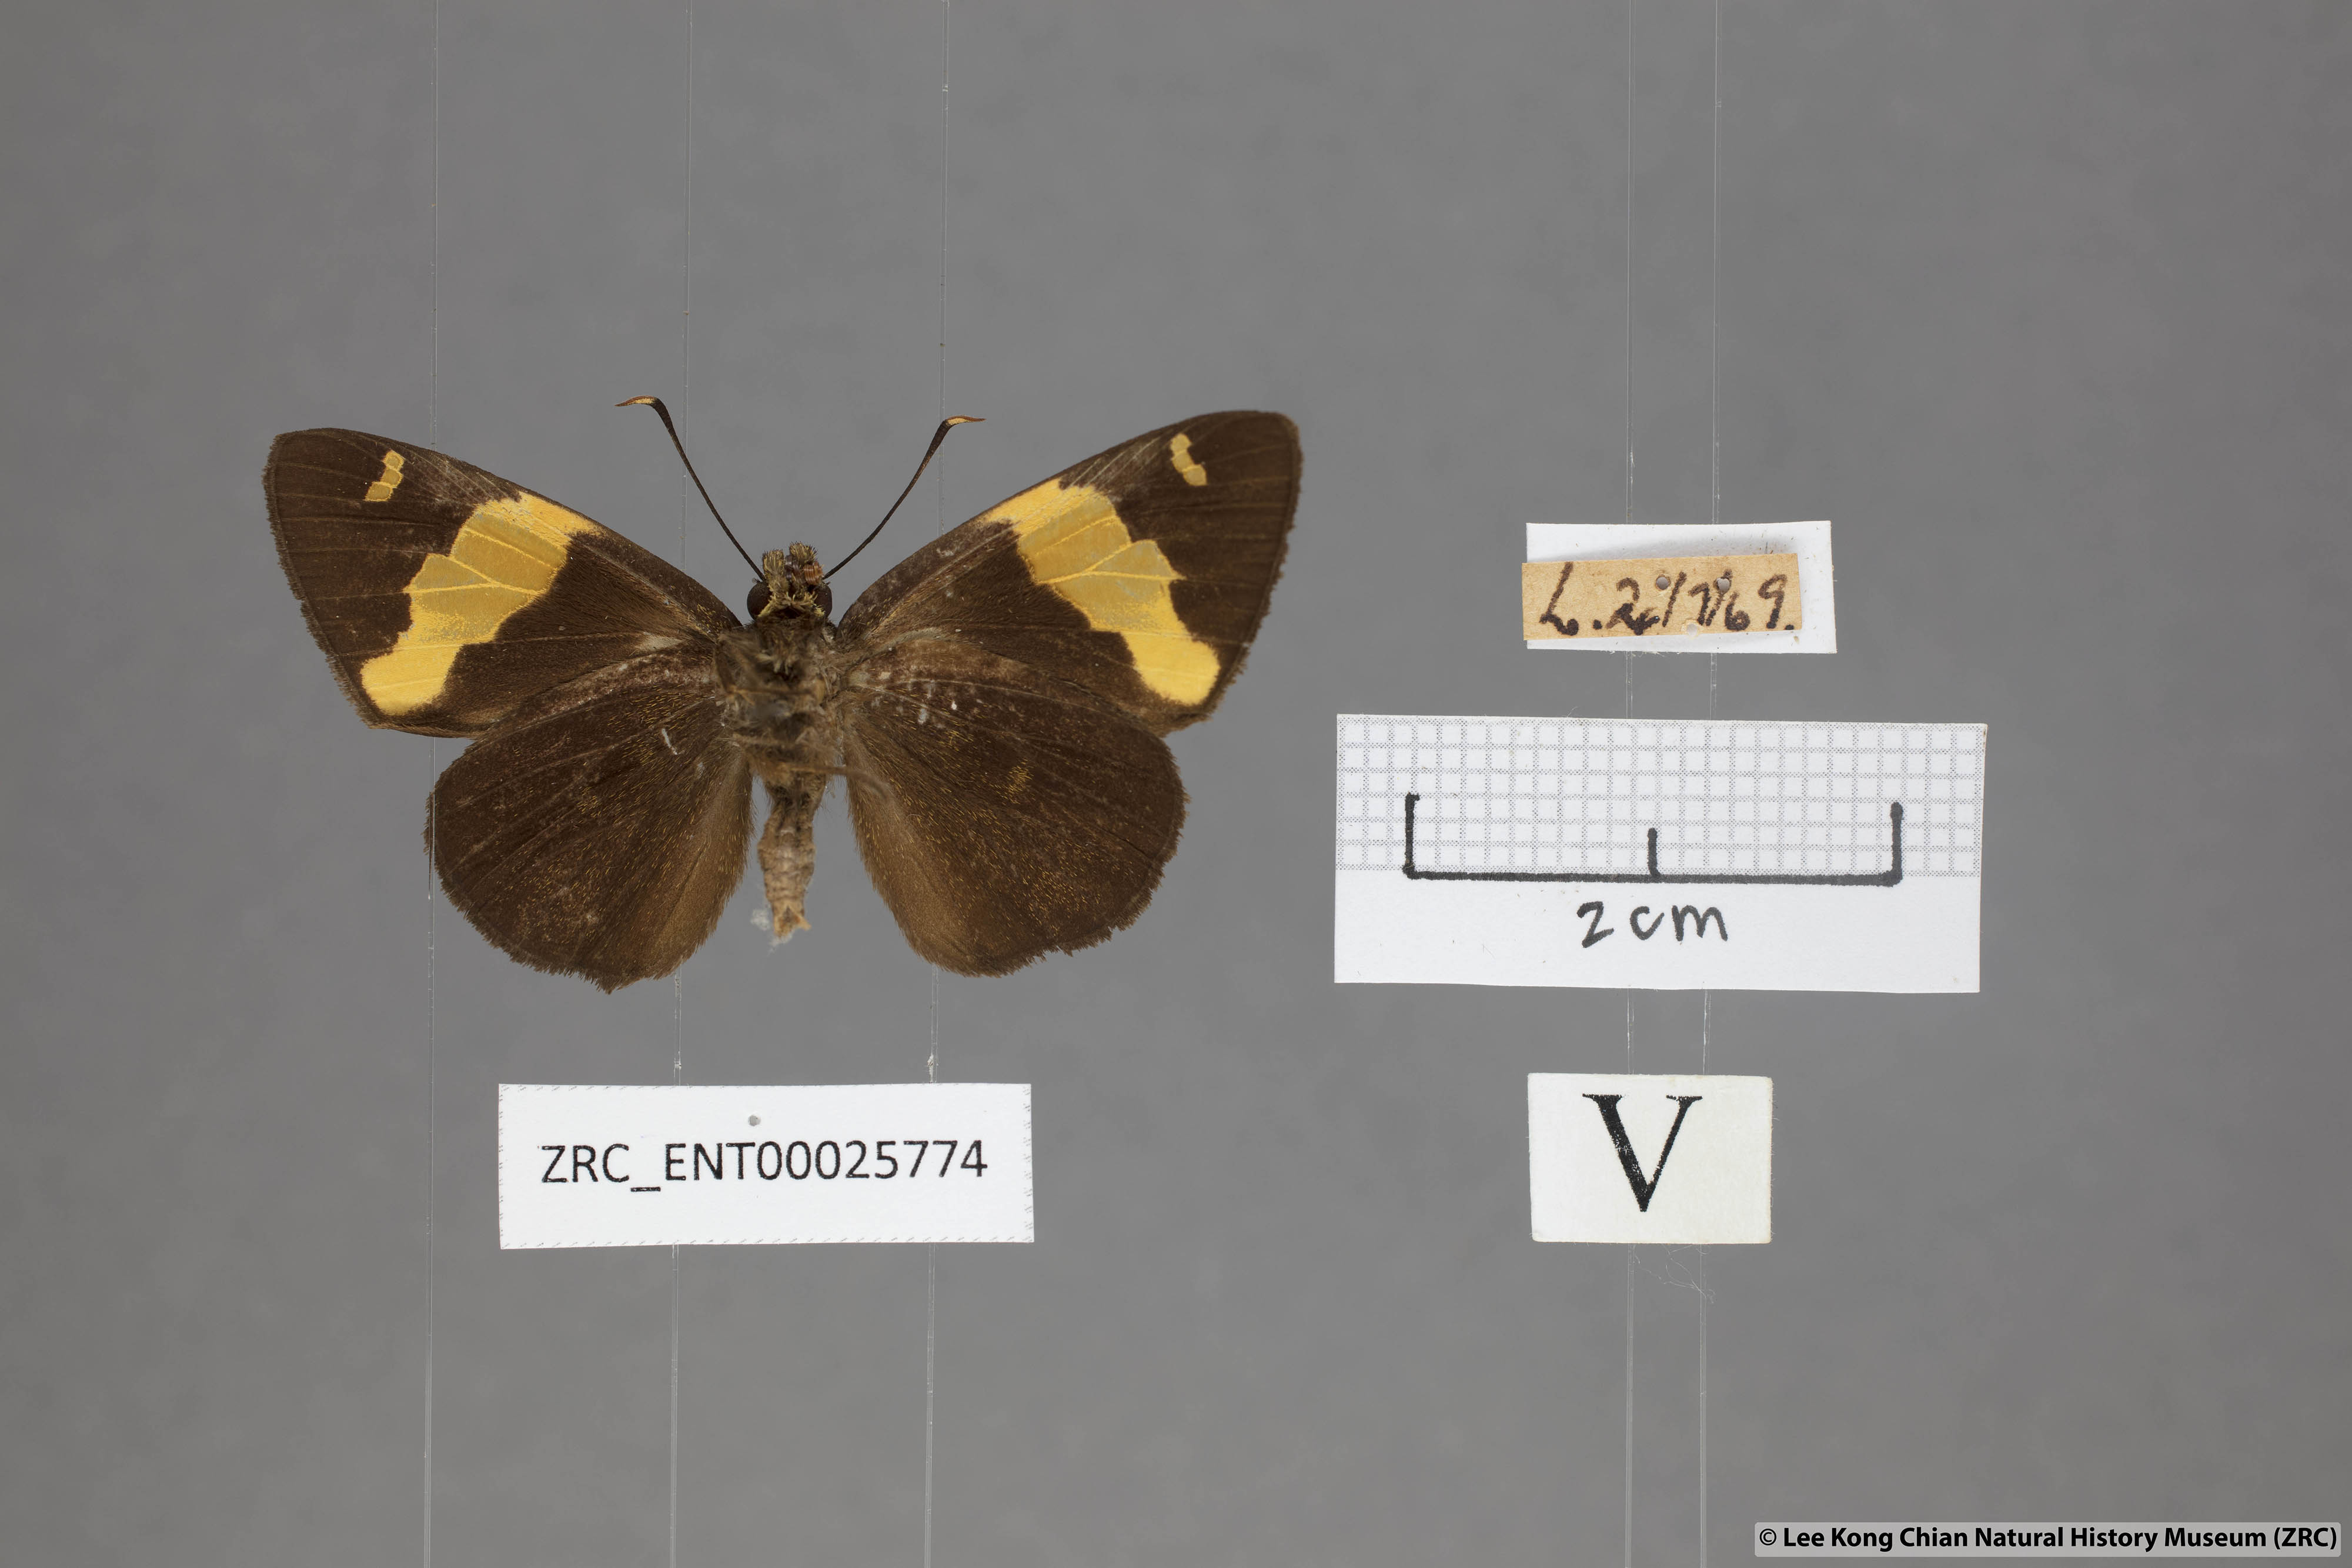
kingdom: Animalia
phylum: Arthropoda
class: Insecta
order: Lepidoptera
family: Hesperiidae
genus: Celaenorrhinus
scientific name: Celaenorrhinus aurivittata
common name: Dark yellow-banded flat
